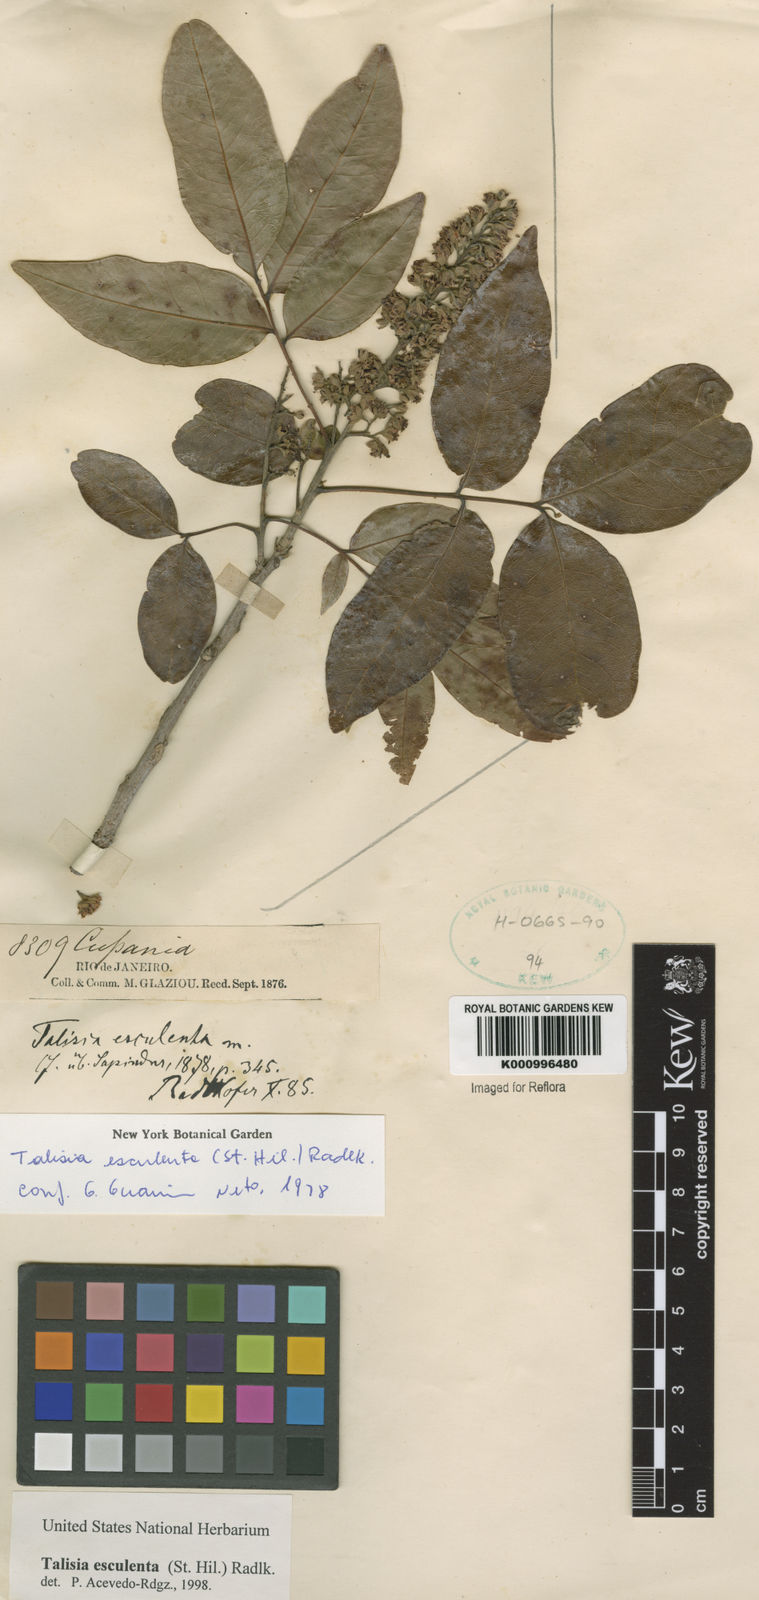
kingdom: Plantae
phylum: Tracheophyta
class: Magnoliopsida
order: Sapindales
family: Sapindaceae
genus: Talisia
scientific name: Talisia
